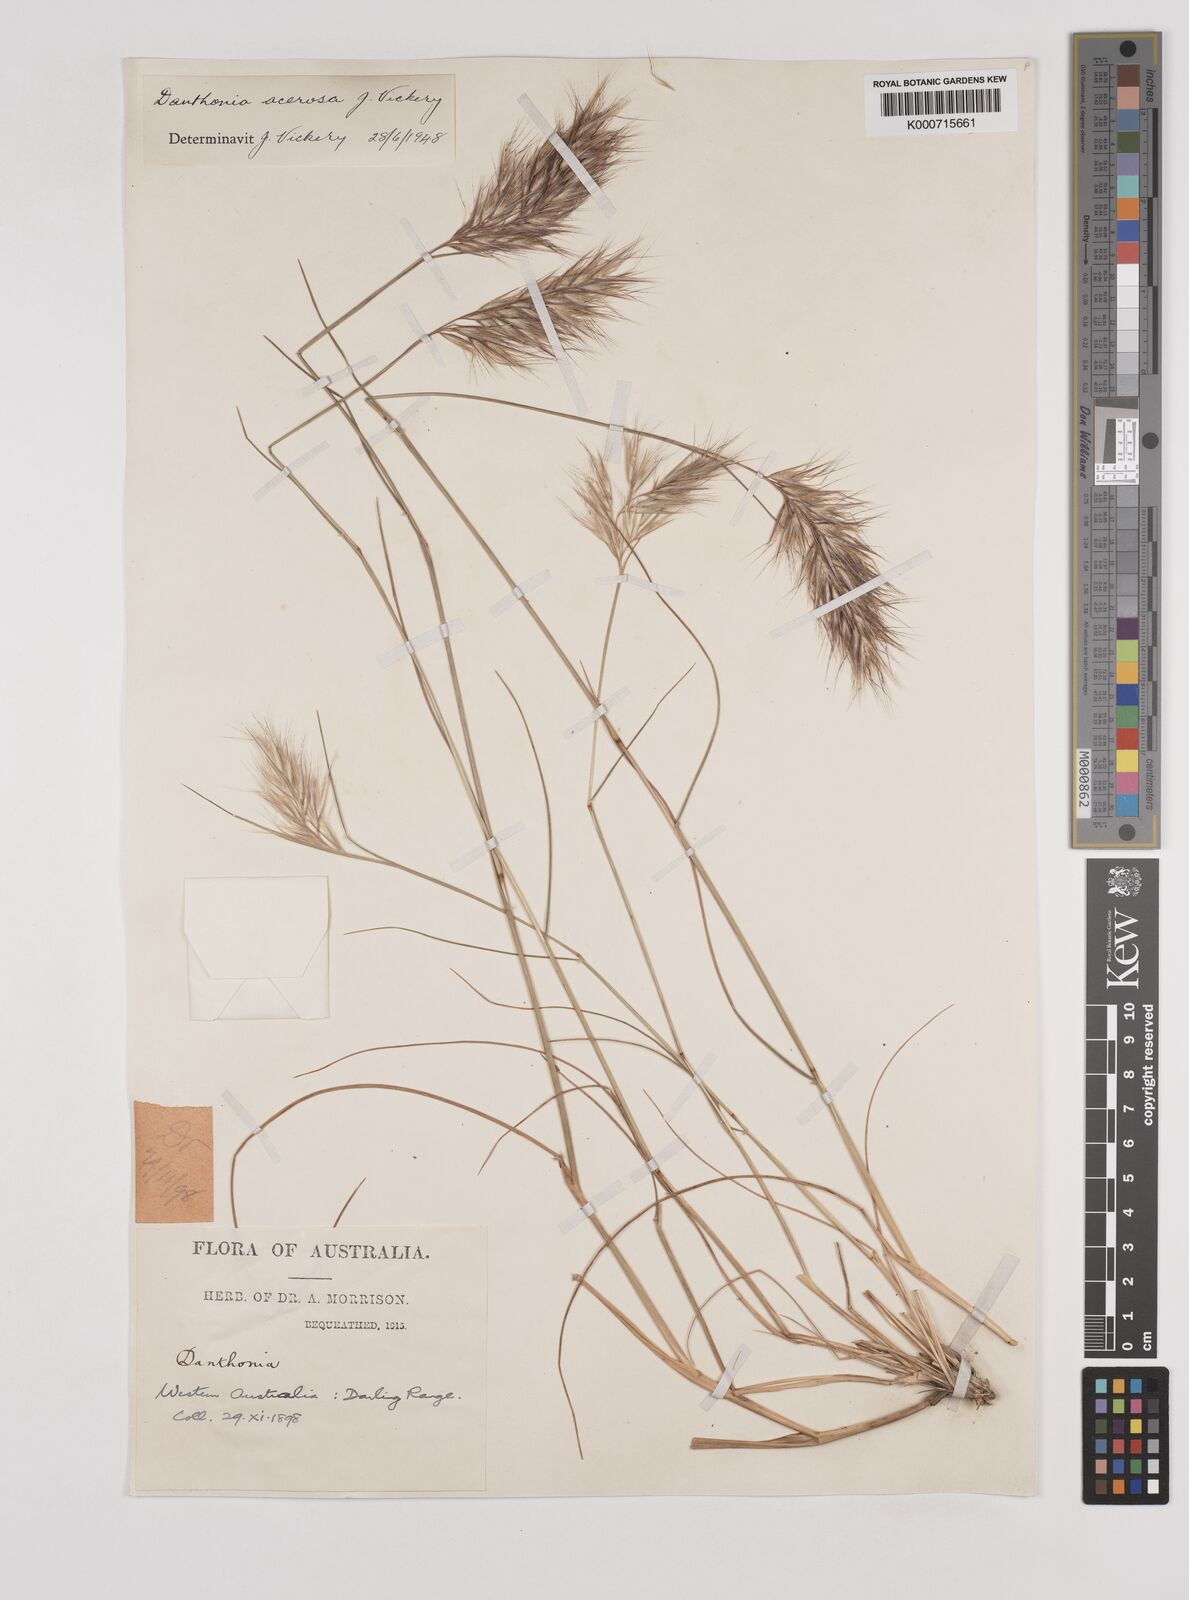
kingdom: Plantae
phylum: Tracheophyta
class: Liliopsida
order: Poales
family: Poaceae
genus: Rytidosperma
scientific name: Rytidosperma acerosum
